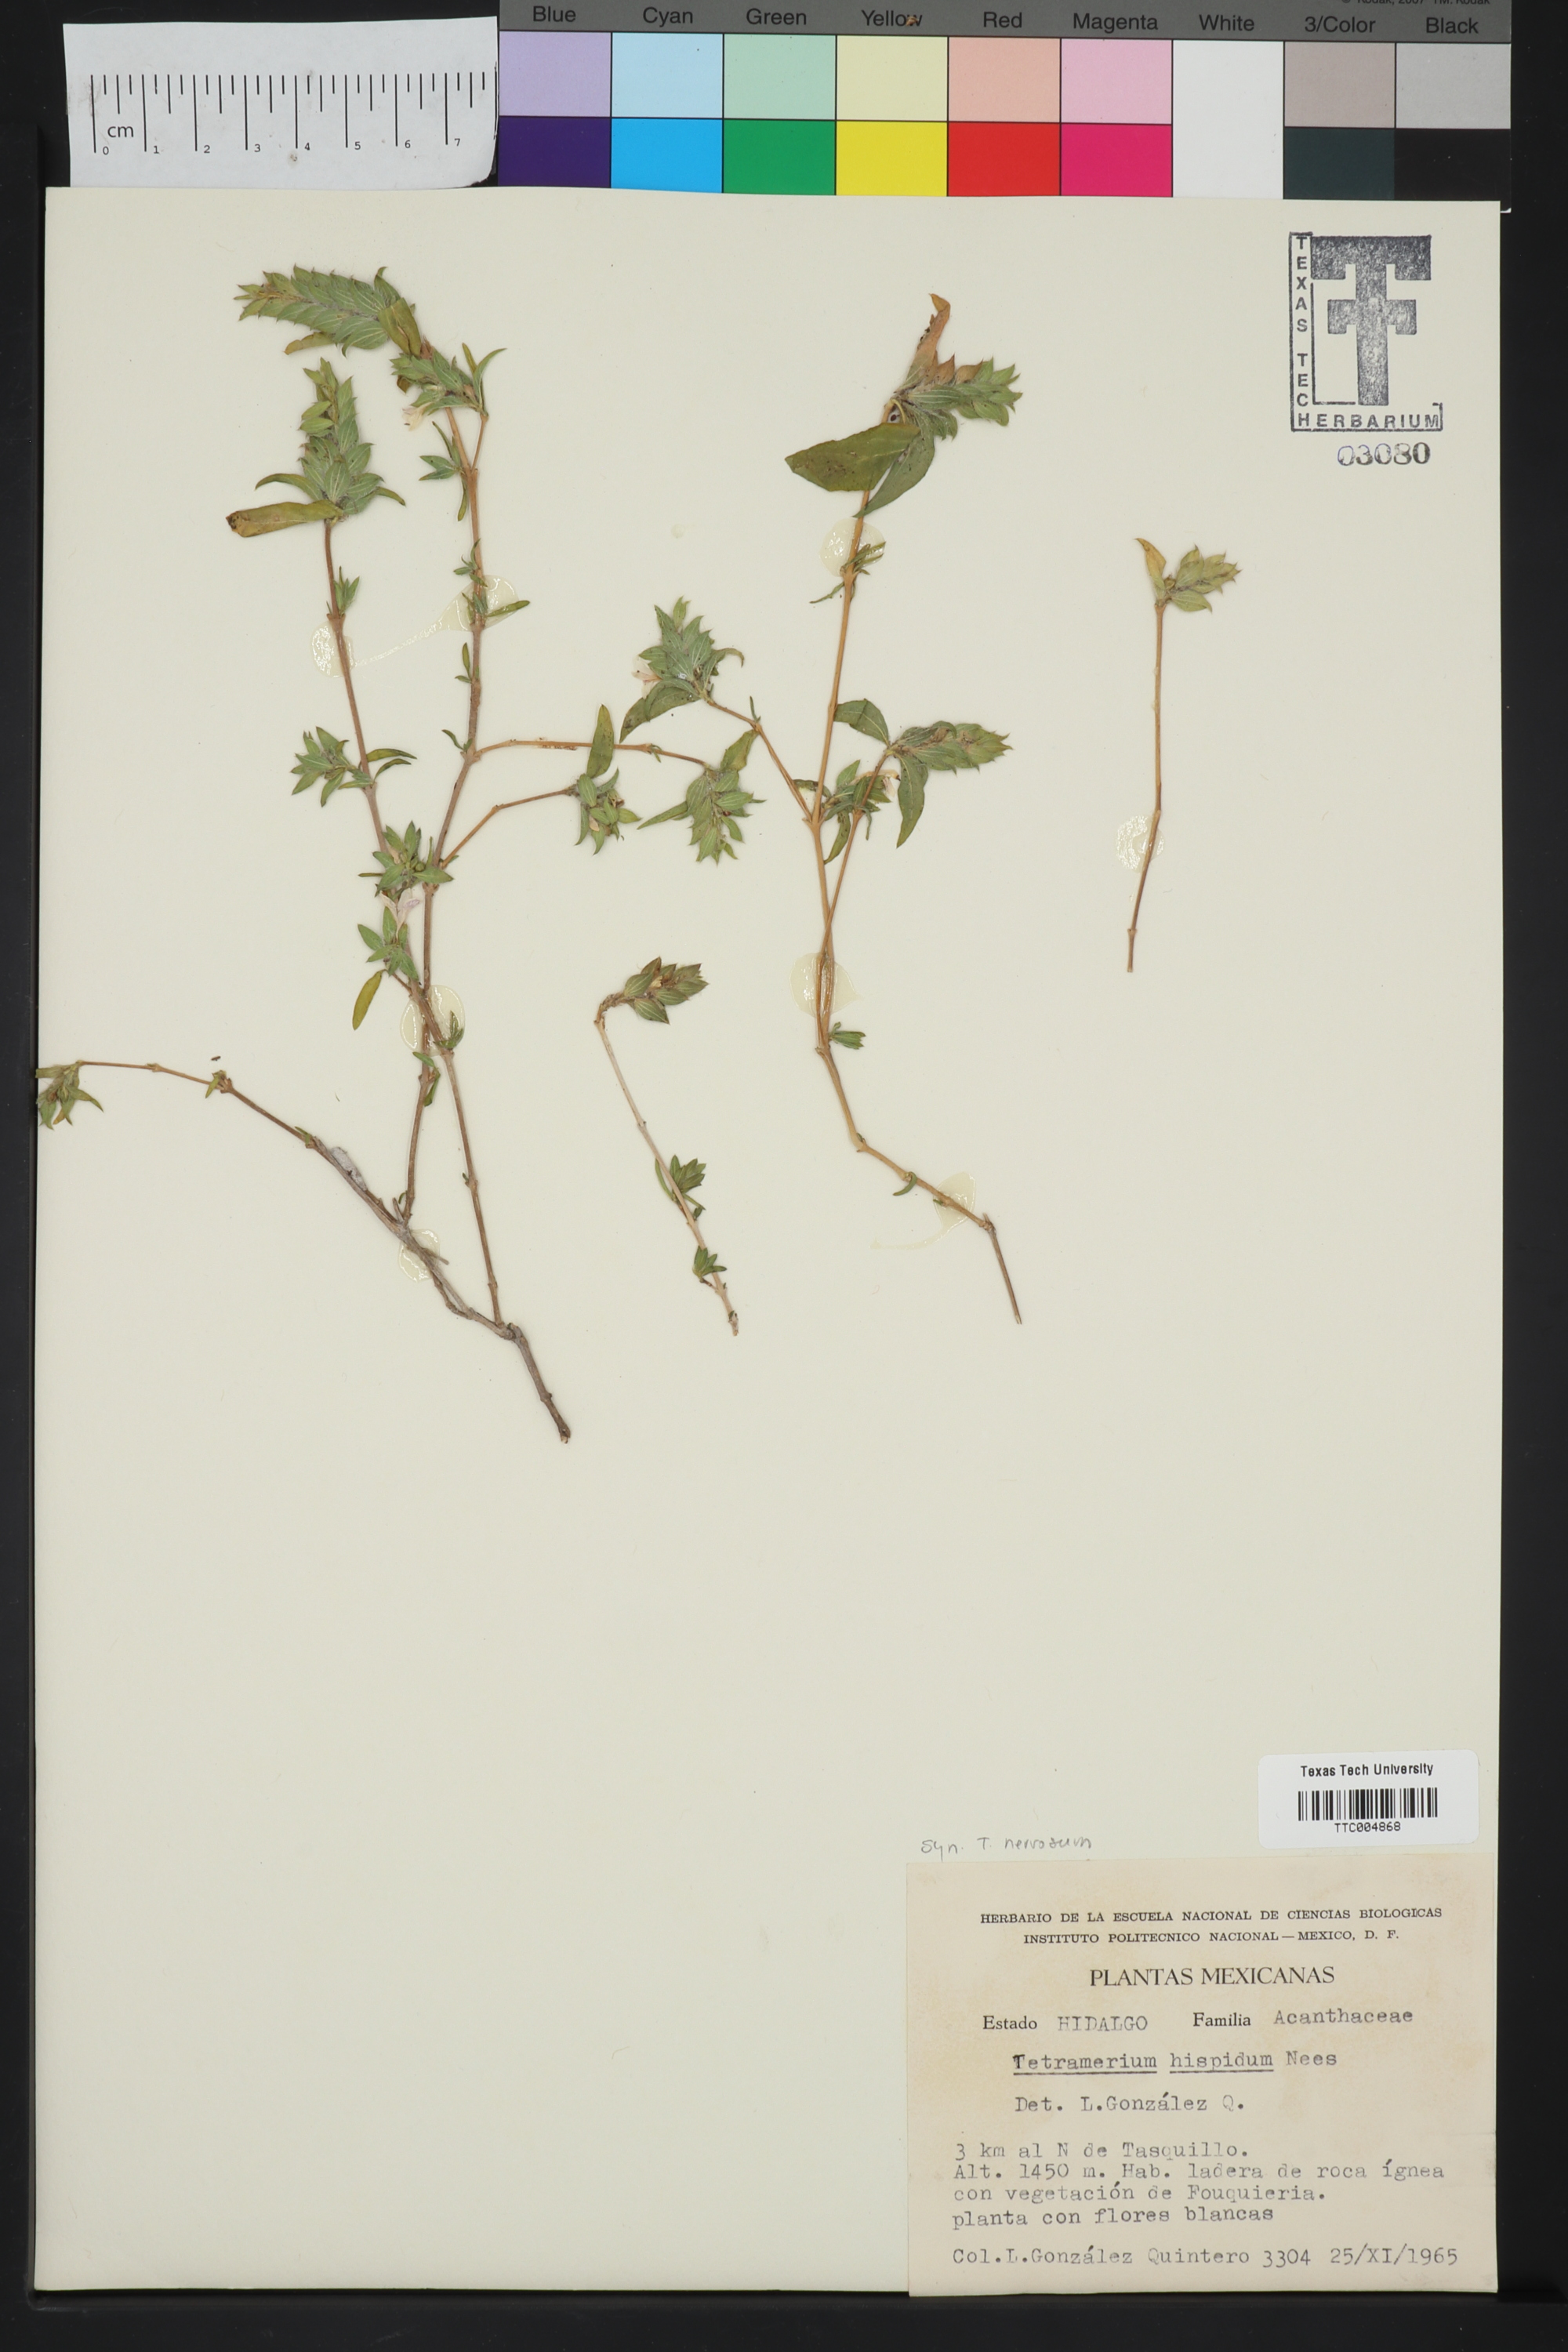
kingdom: Plantae
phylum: Tracheophyta
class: Magnoliopsida
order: Lamiales
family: Acanthaceae
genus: Tetramerium
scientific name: Tetramerium nervosum
